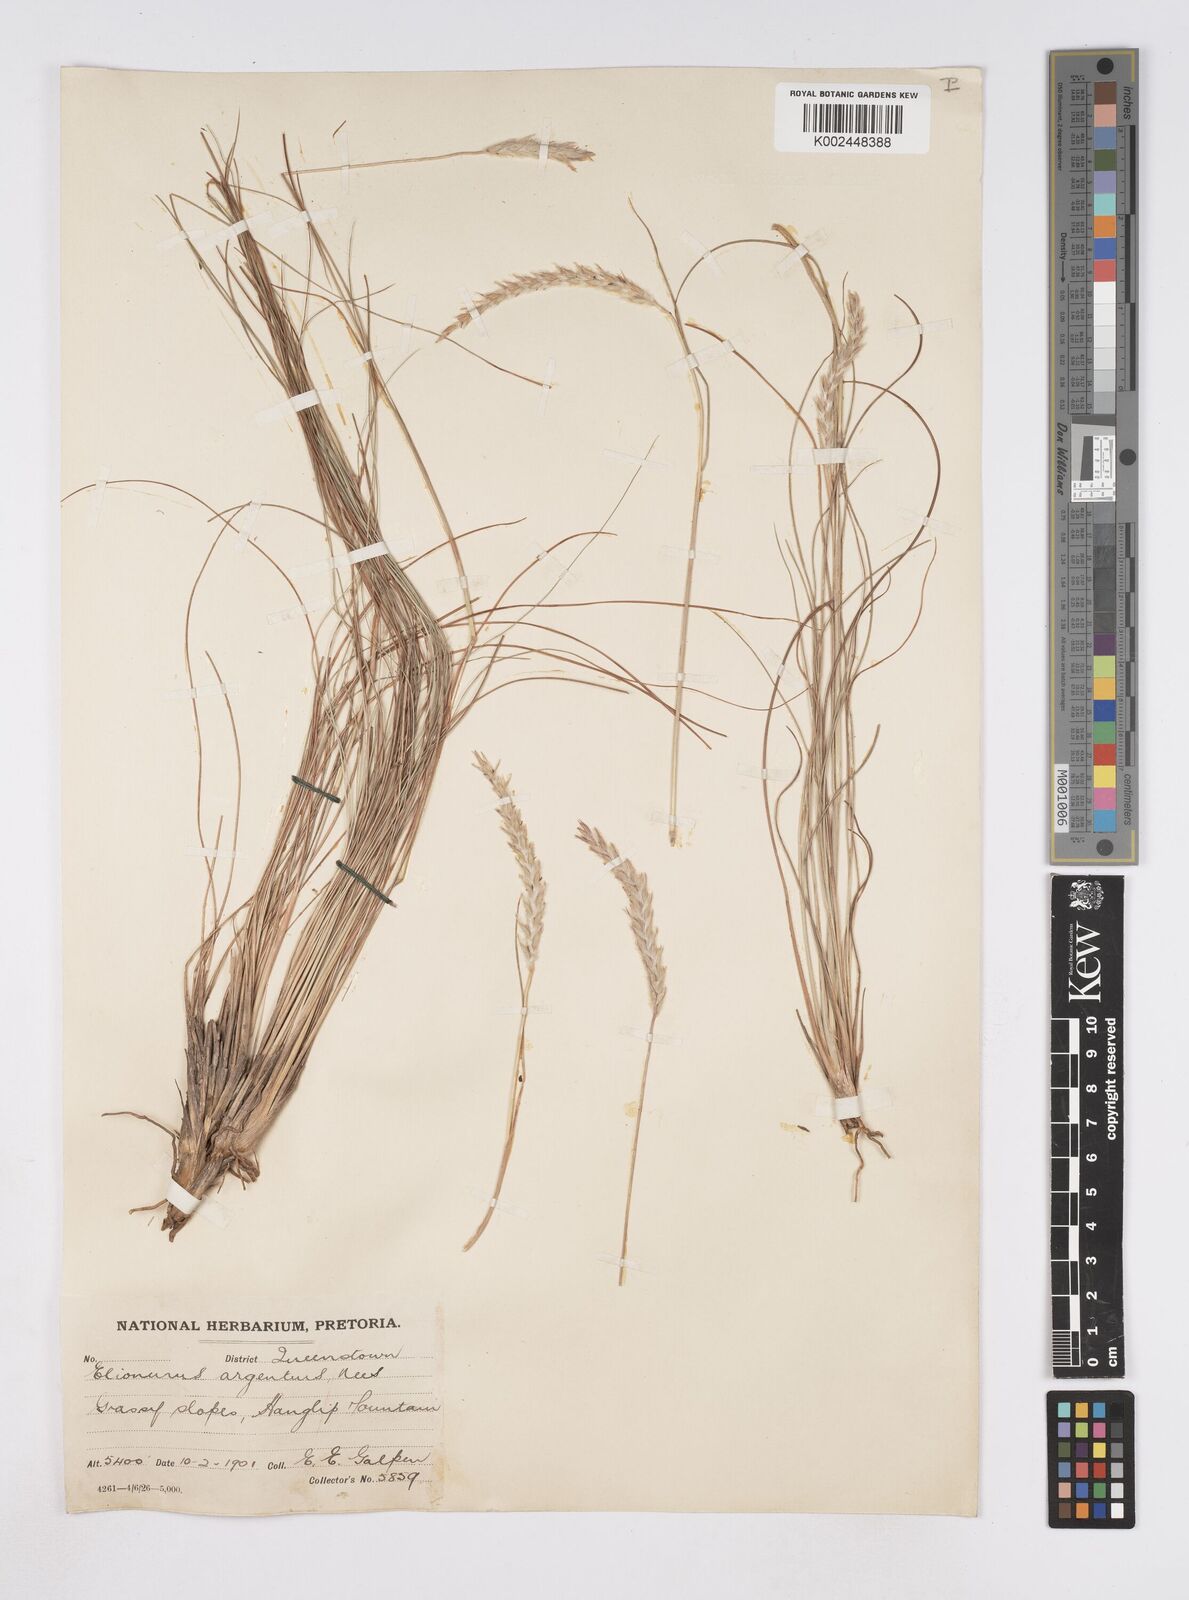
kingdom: Plantae
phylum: Tracheophyta
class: Liliopsida
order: Poales
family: Poaceae
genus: Elionurus
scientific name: Elionurus muticus
